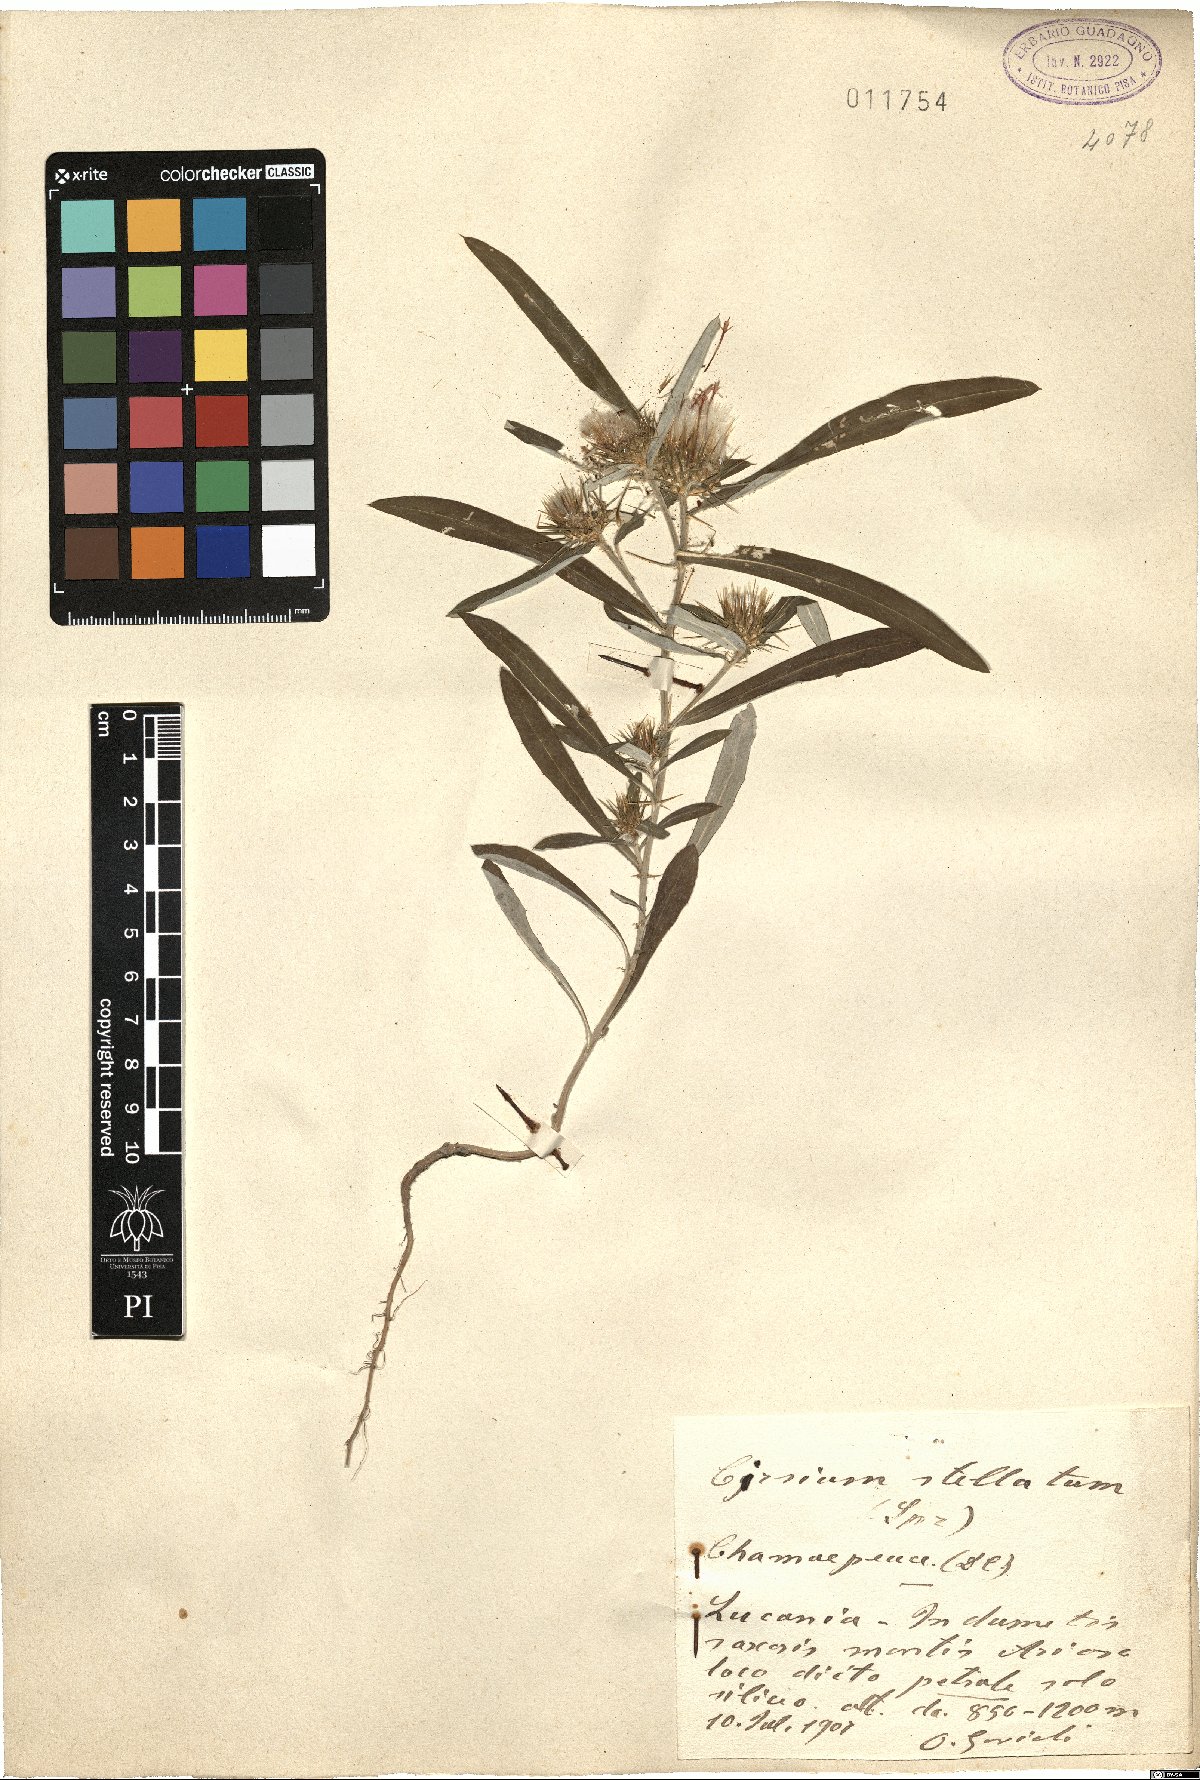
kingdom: Plantae
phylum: Tracheophyta
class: Magnoliopsida
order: Asterales
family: Asteraceae
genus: Ptilostemon
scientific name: Ptilostemon stellatus
